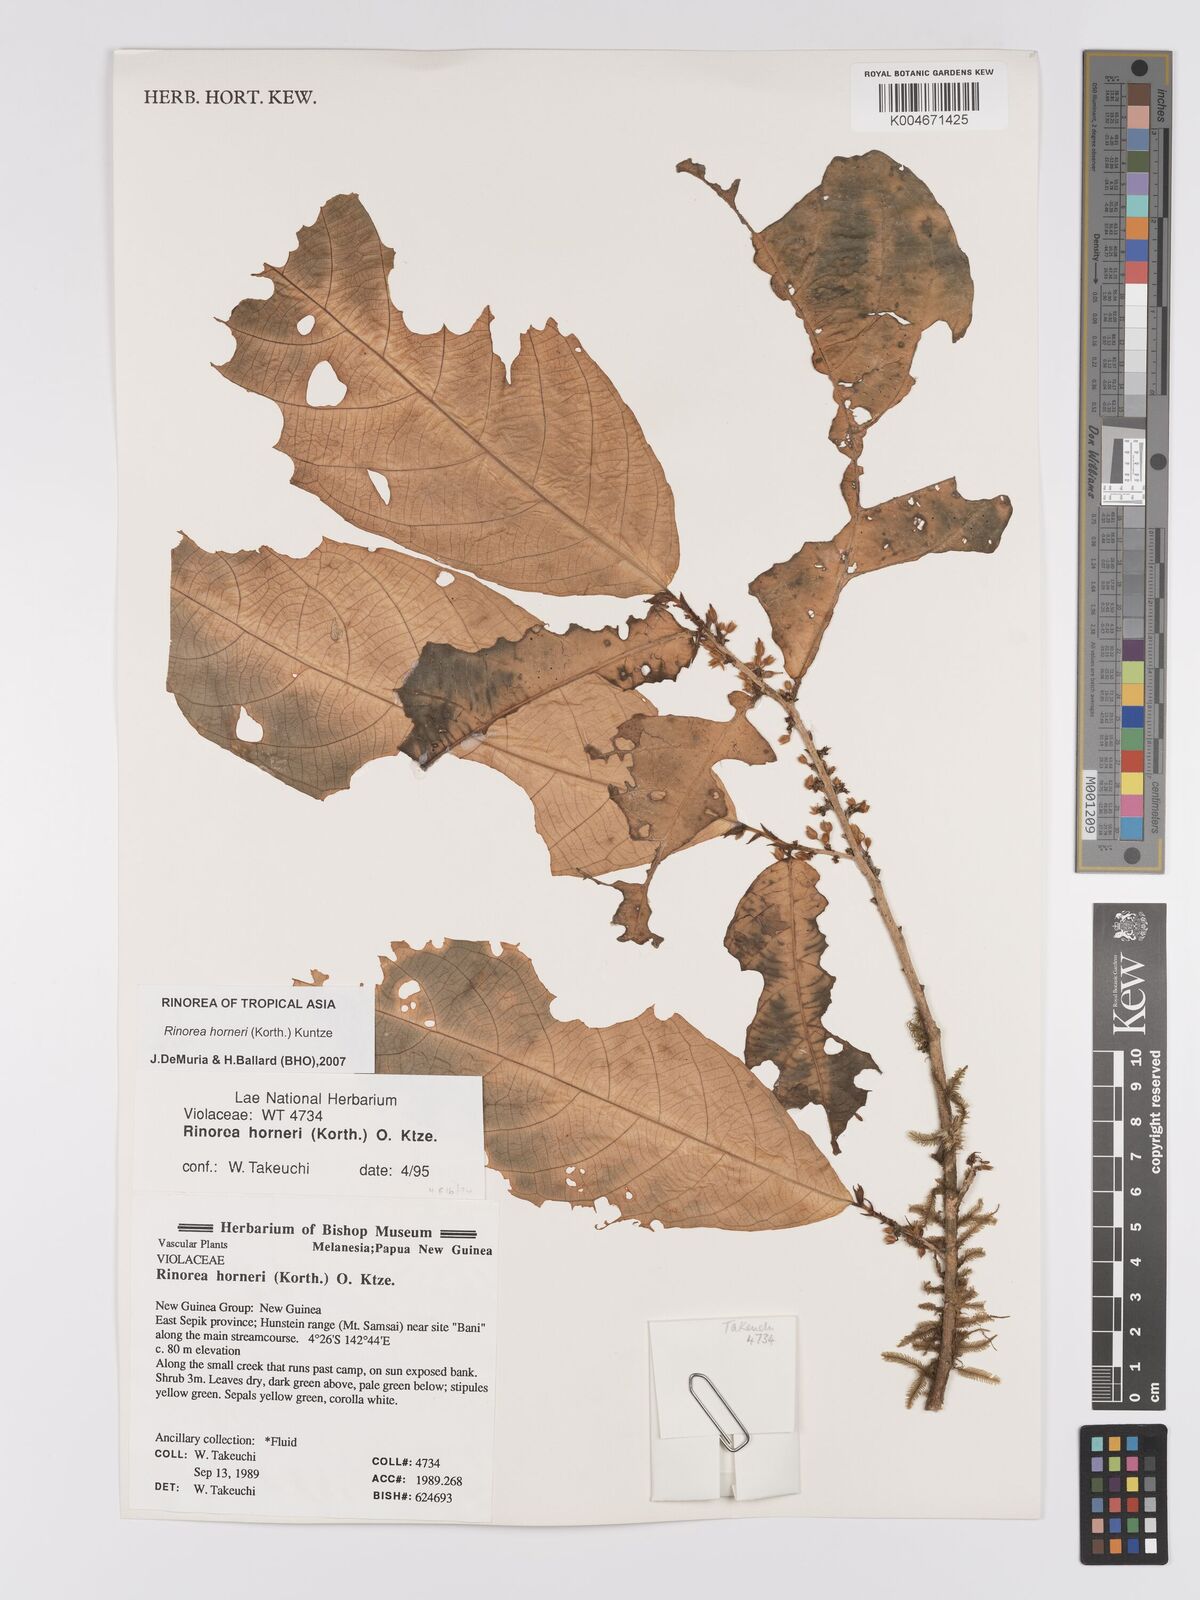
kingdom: Plantae
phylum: Tracheophyta
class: Magnoliopsida
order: Malpighiales
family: Violaceae
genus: Rinorea
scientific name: Rinorea horneri
